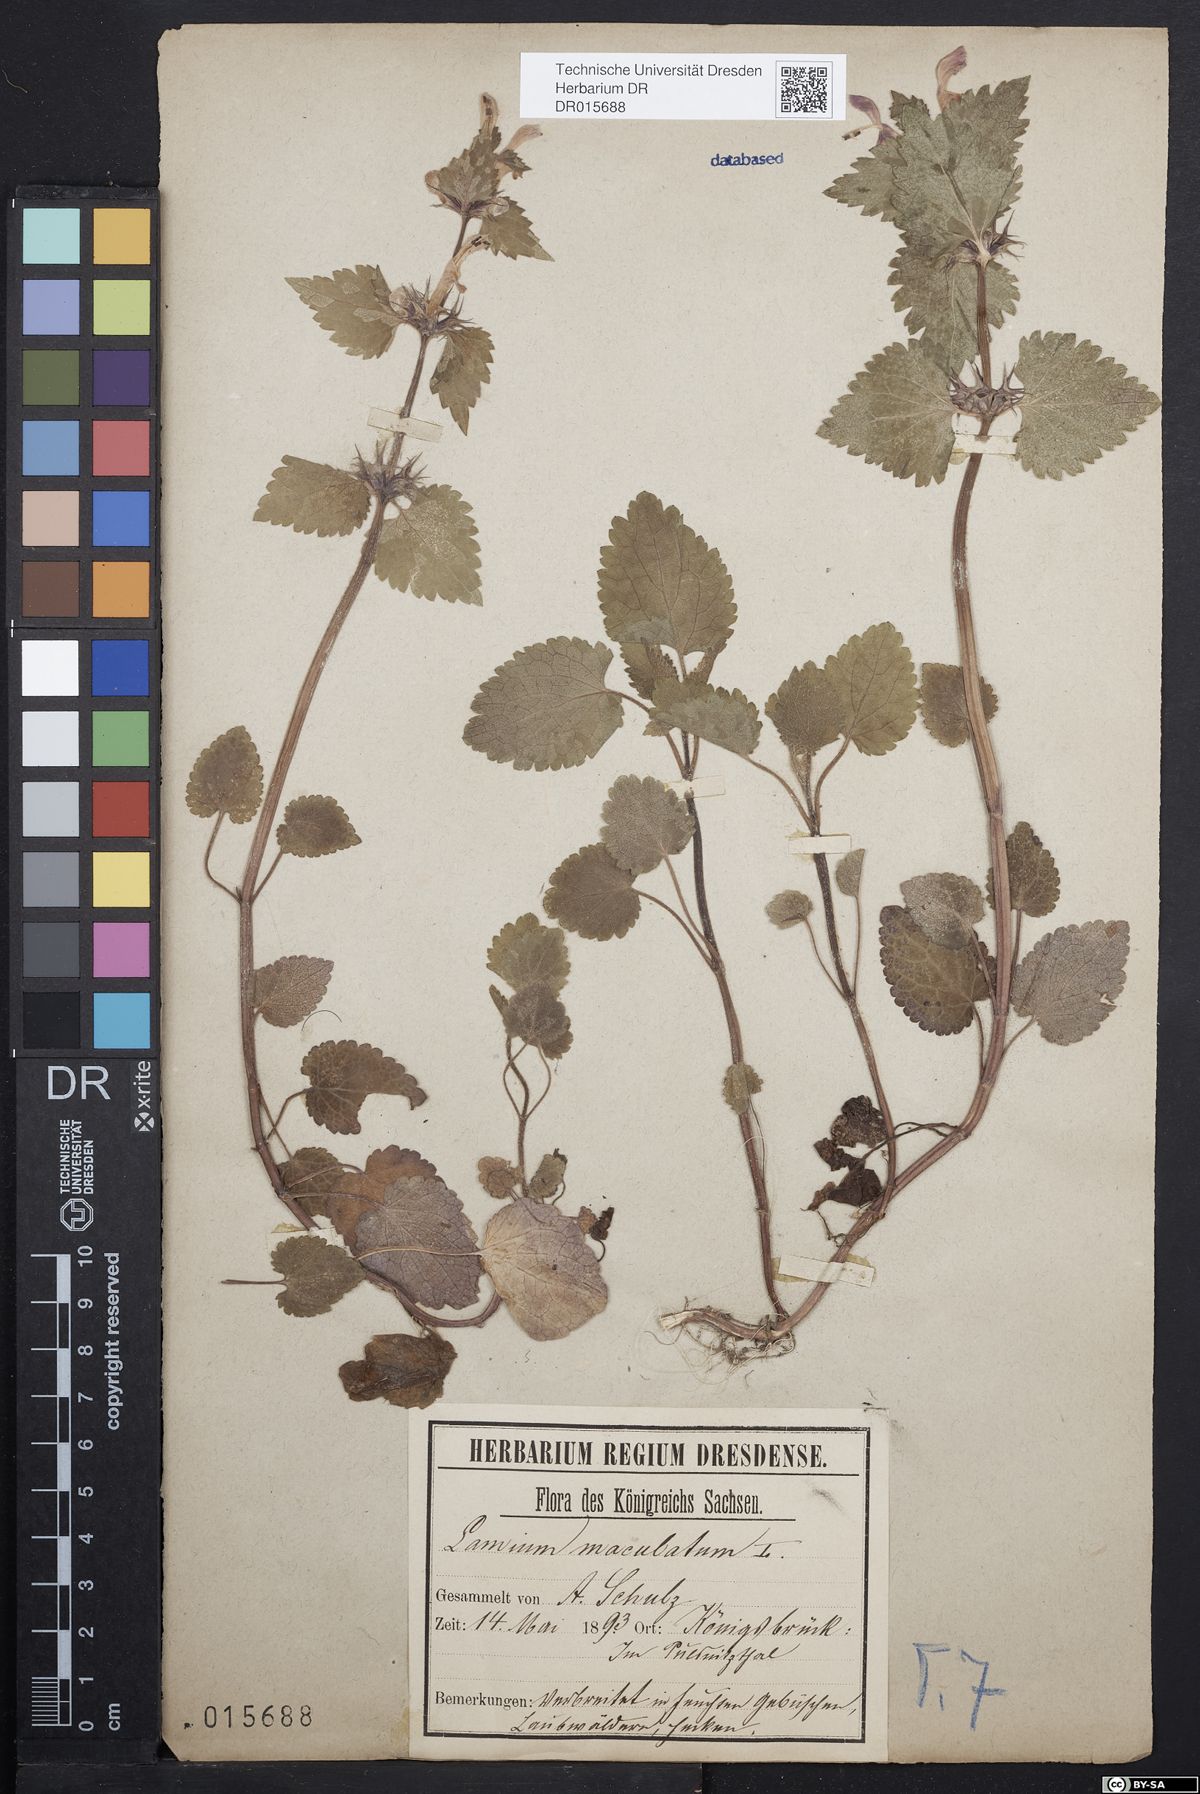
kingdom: Plantae
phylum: Tracheophyta
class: Magnoliopsida
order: Lamiales
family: Lamiaceae
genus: Lamium
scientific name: Lamium maculatum
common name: Spotted dead-nettle
